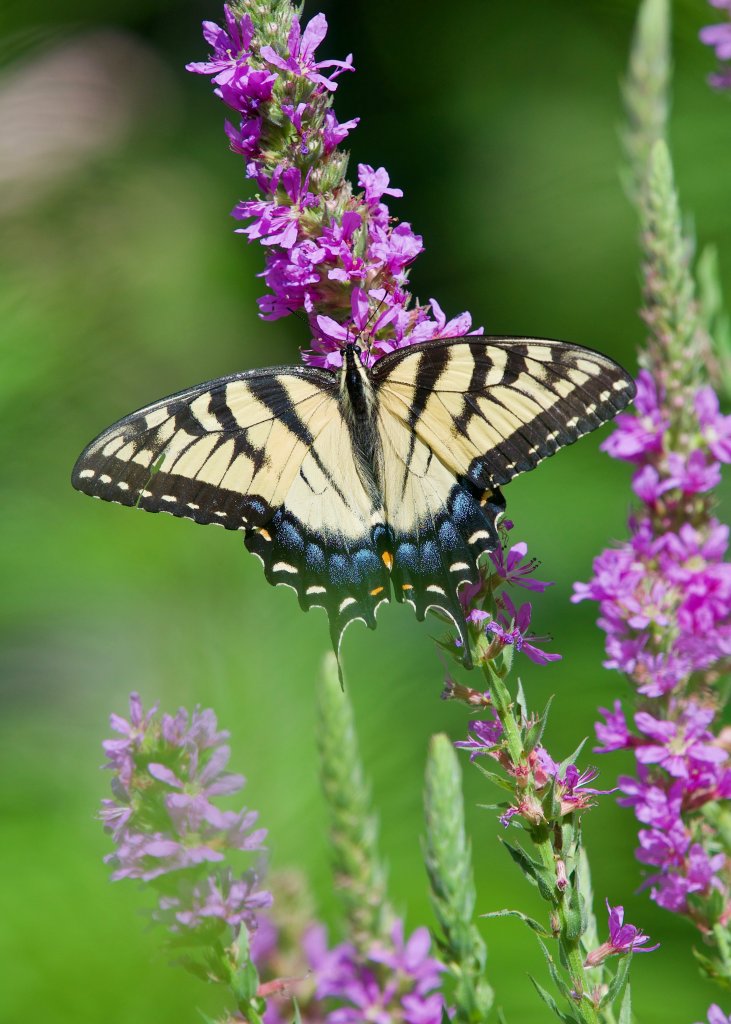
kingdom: Animalia
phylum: Arthropoda
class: Insecta
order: Lepidoptera
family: Papilionidae
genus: Pterourus
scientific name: Pterourus glaucus
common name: Eastern Tiger Swallowtail
